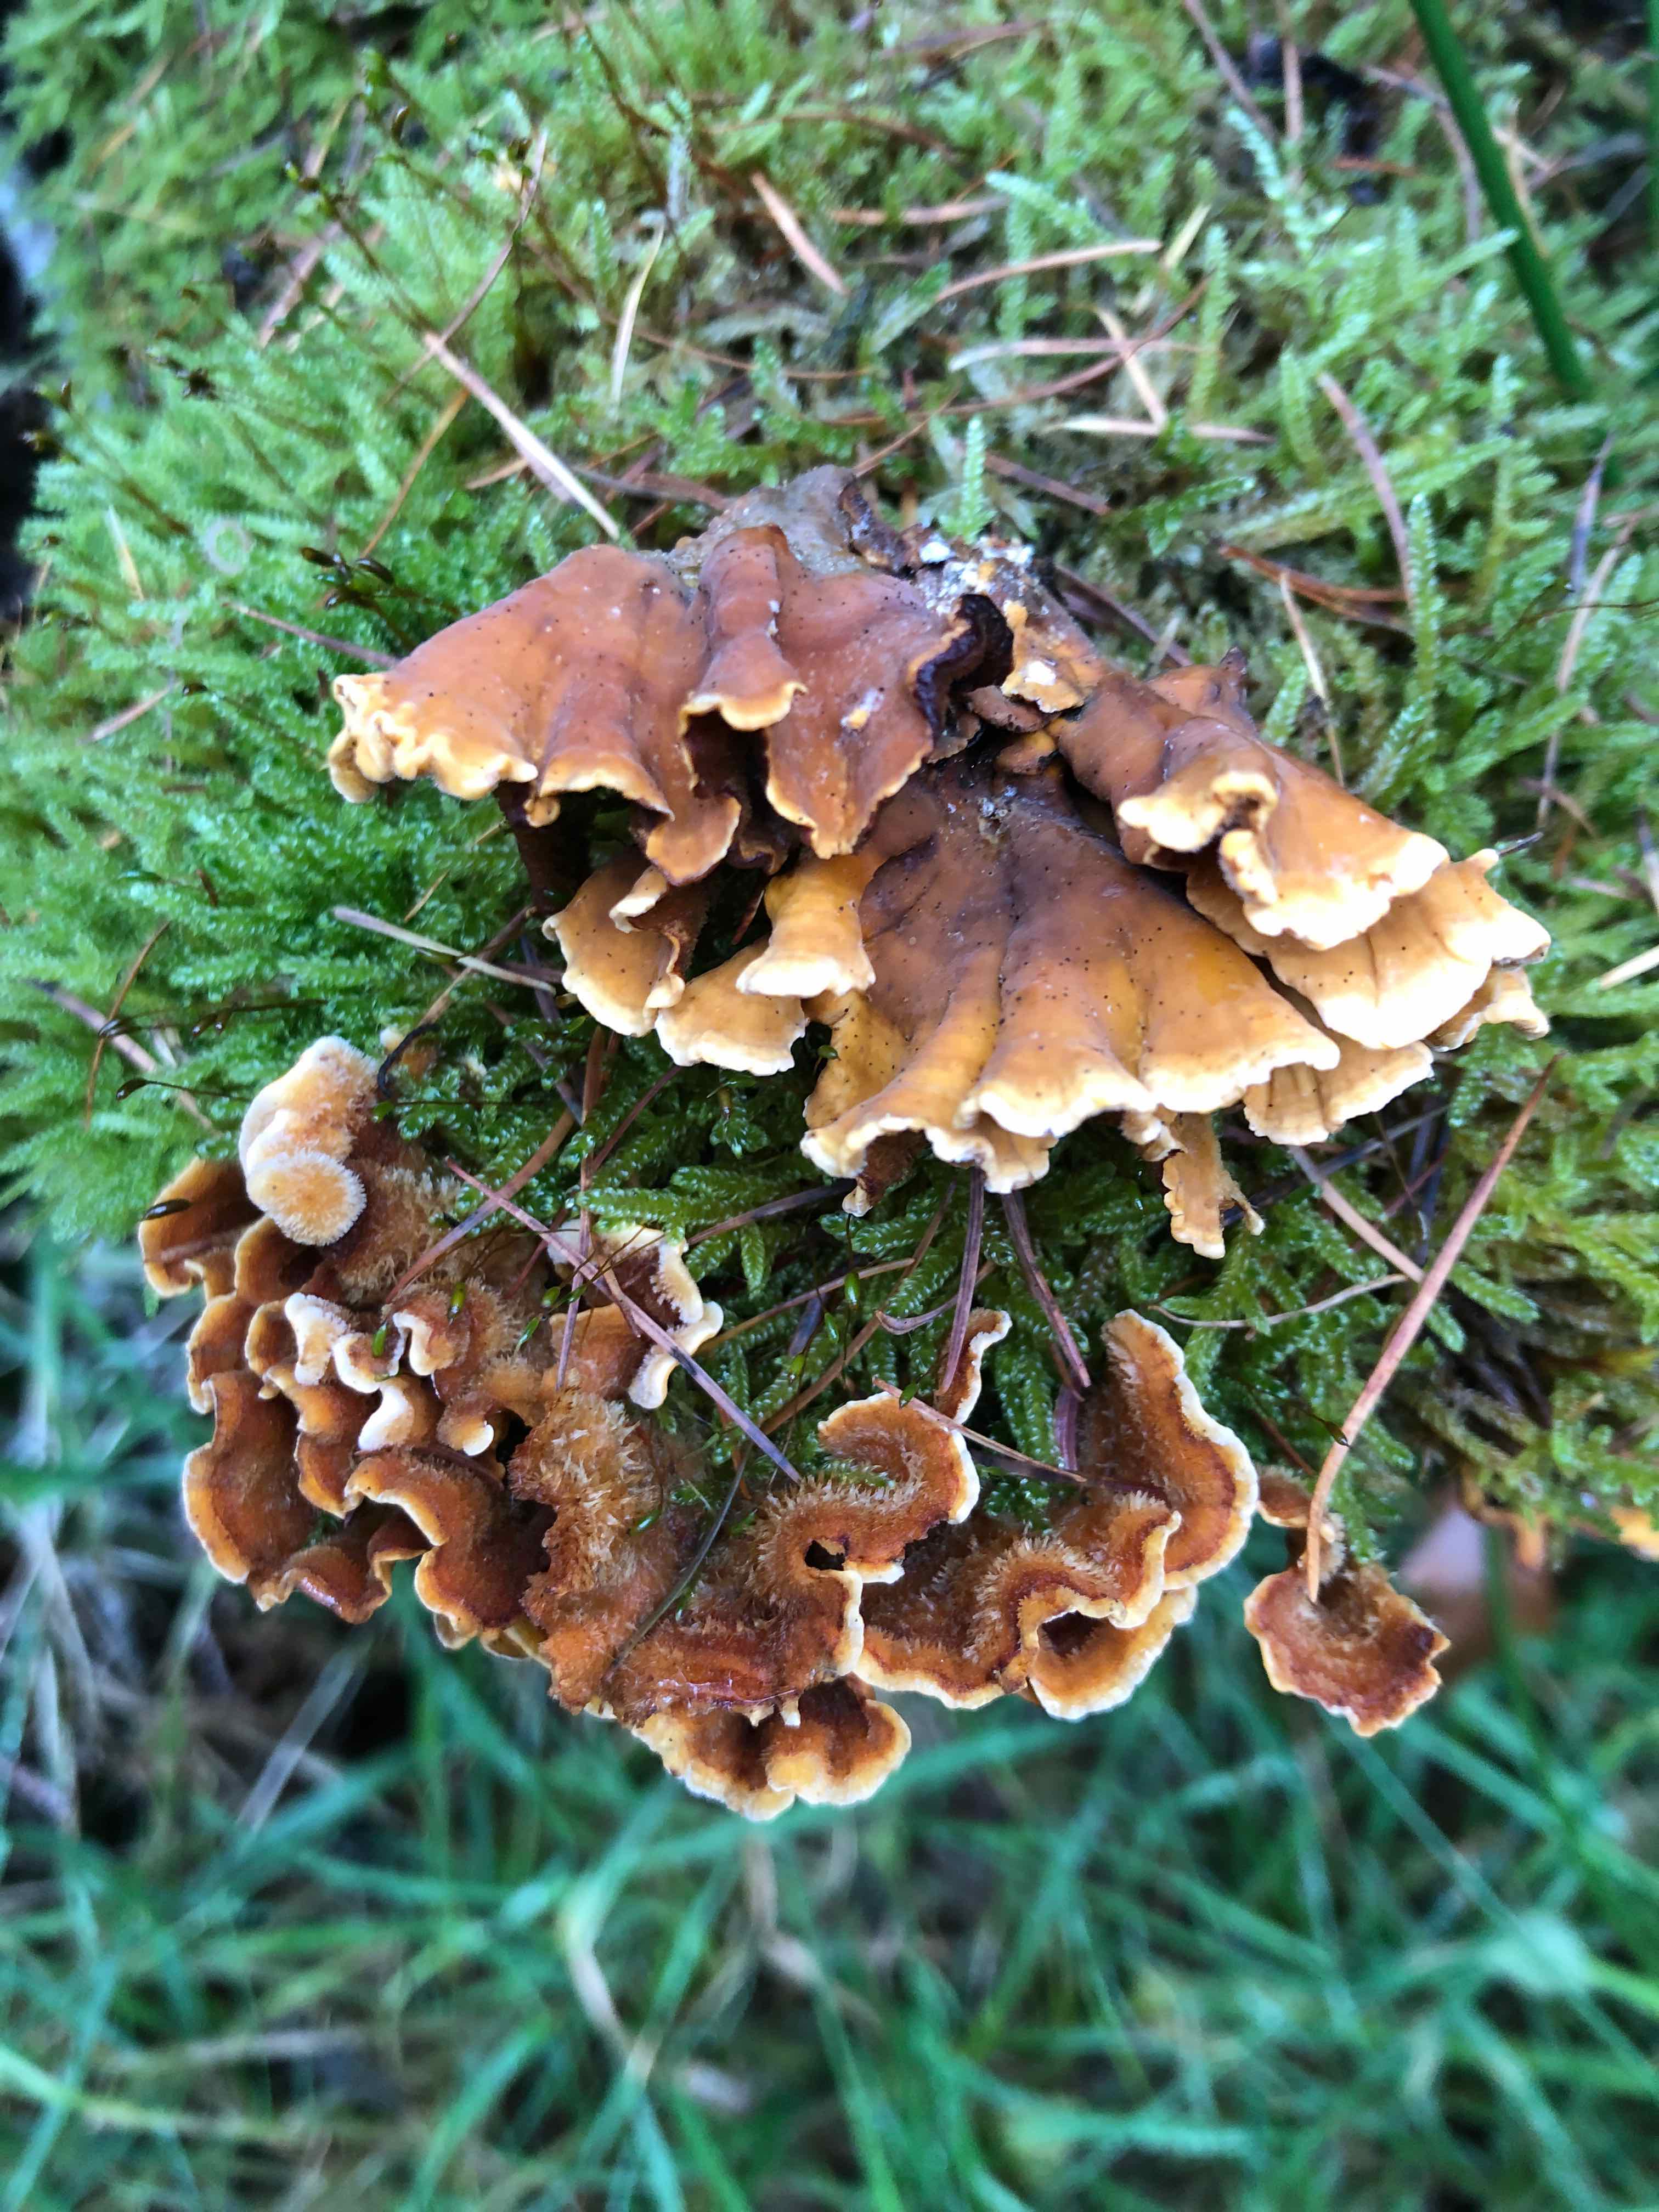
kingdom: Fungi
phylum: Basidiomycota
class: Agaricomycetes
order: Russulales
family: Stereaceae
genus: Stereum
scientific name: Stereum hirsutum
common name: håret lædersvamp
